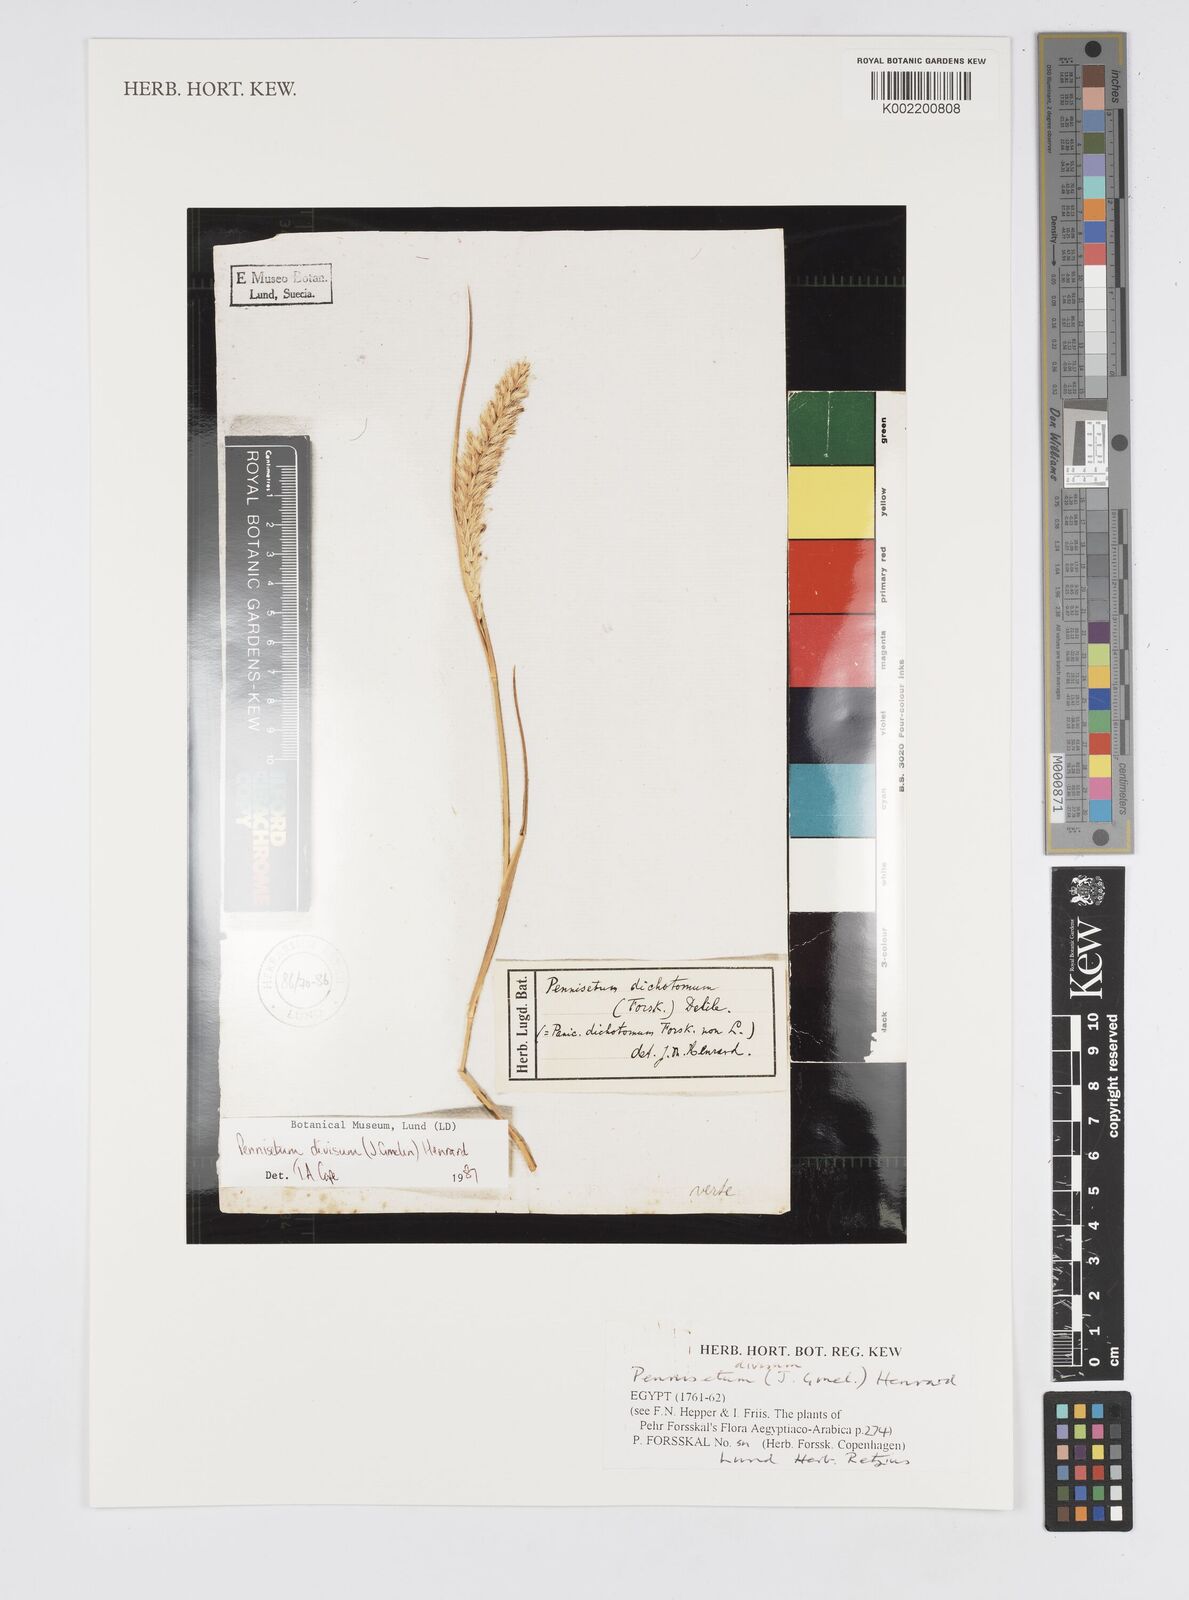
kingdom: Plantae
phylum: Tracheophyta
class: Liliopsida
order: Poales
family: Poaceae
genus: Cenchrus
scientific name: Cenchrus divisus
